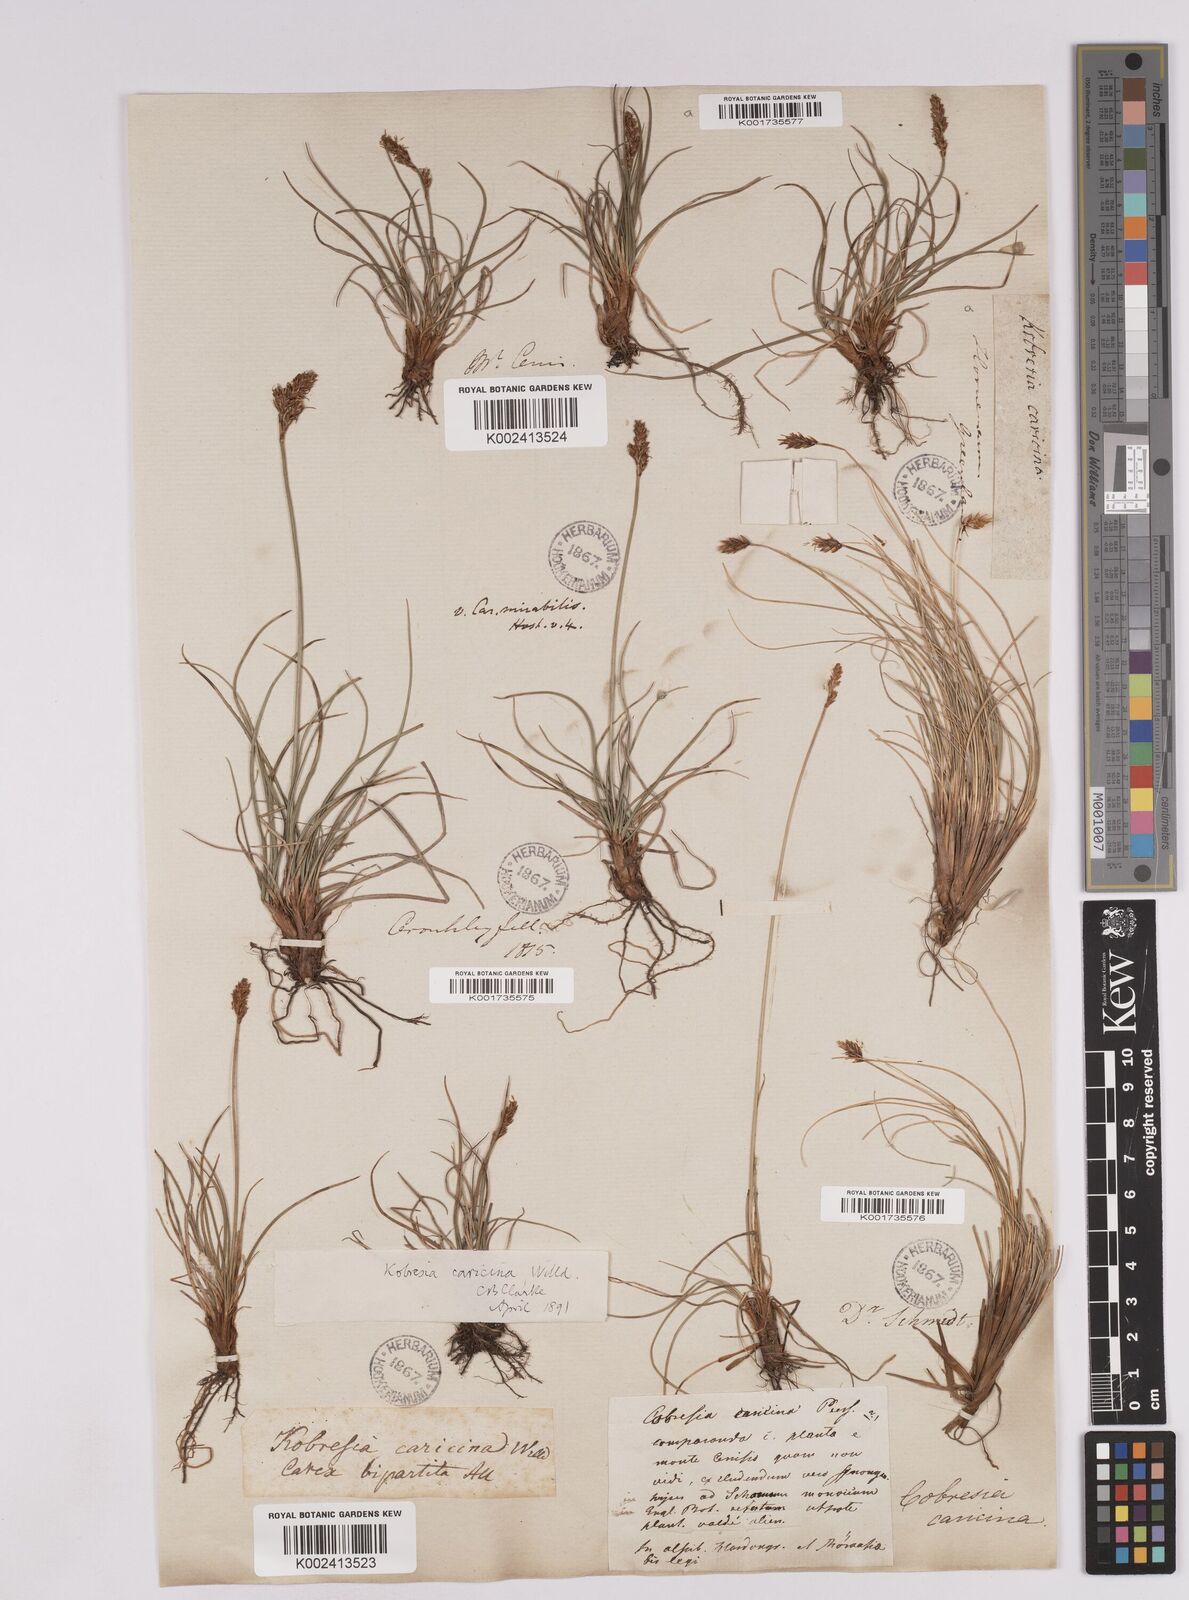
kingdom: Plantae
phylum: Tracheophyta
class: Liliopsida
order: Poales
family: Cyperaceae
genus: Carex
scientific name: Carex simpliciuscula
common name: Simple bog sedge
